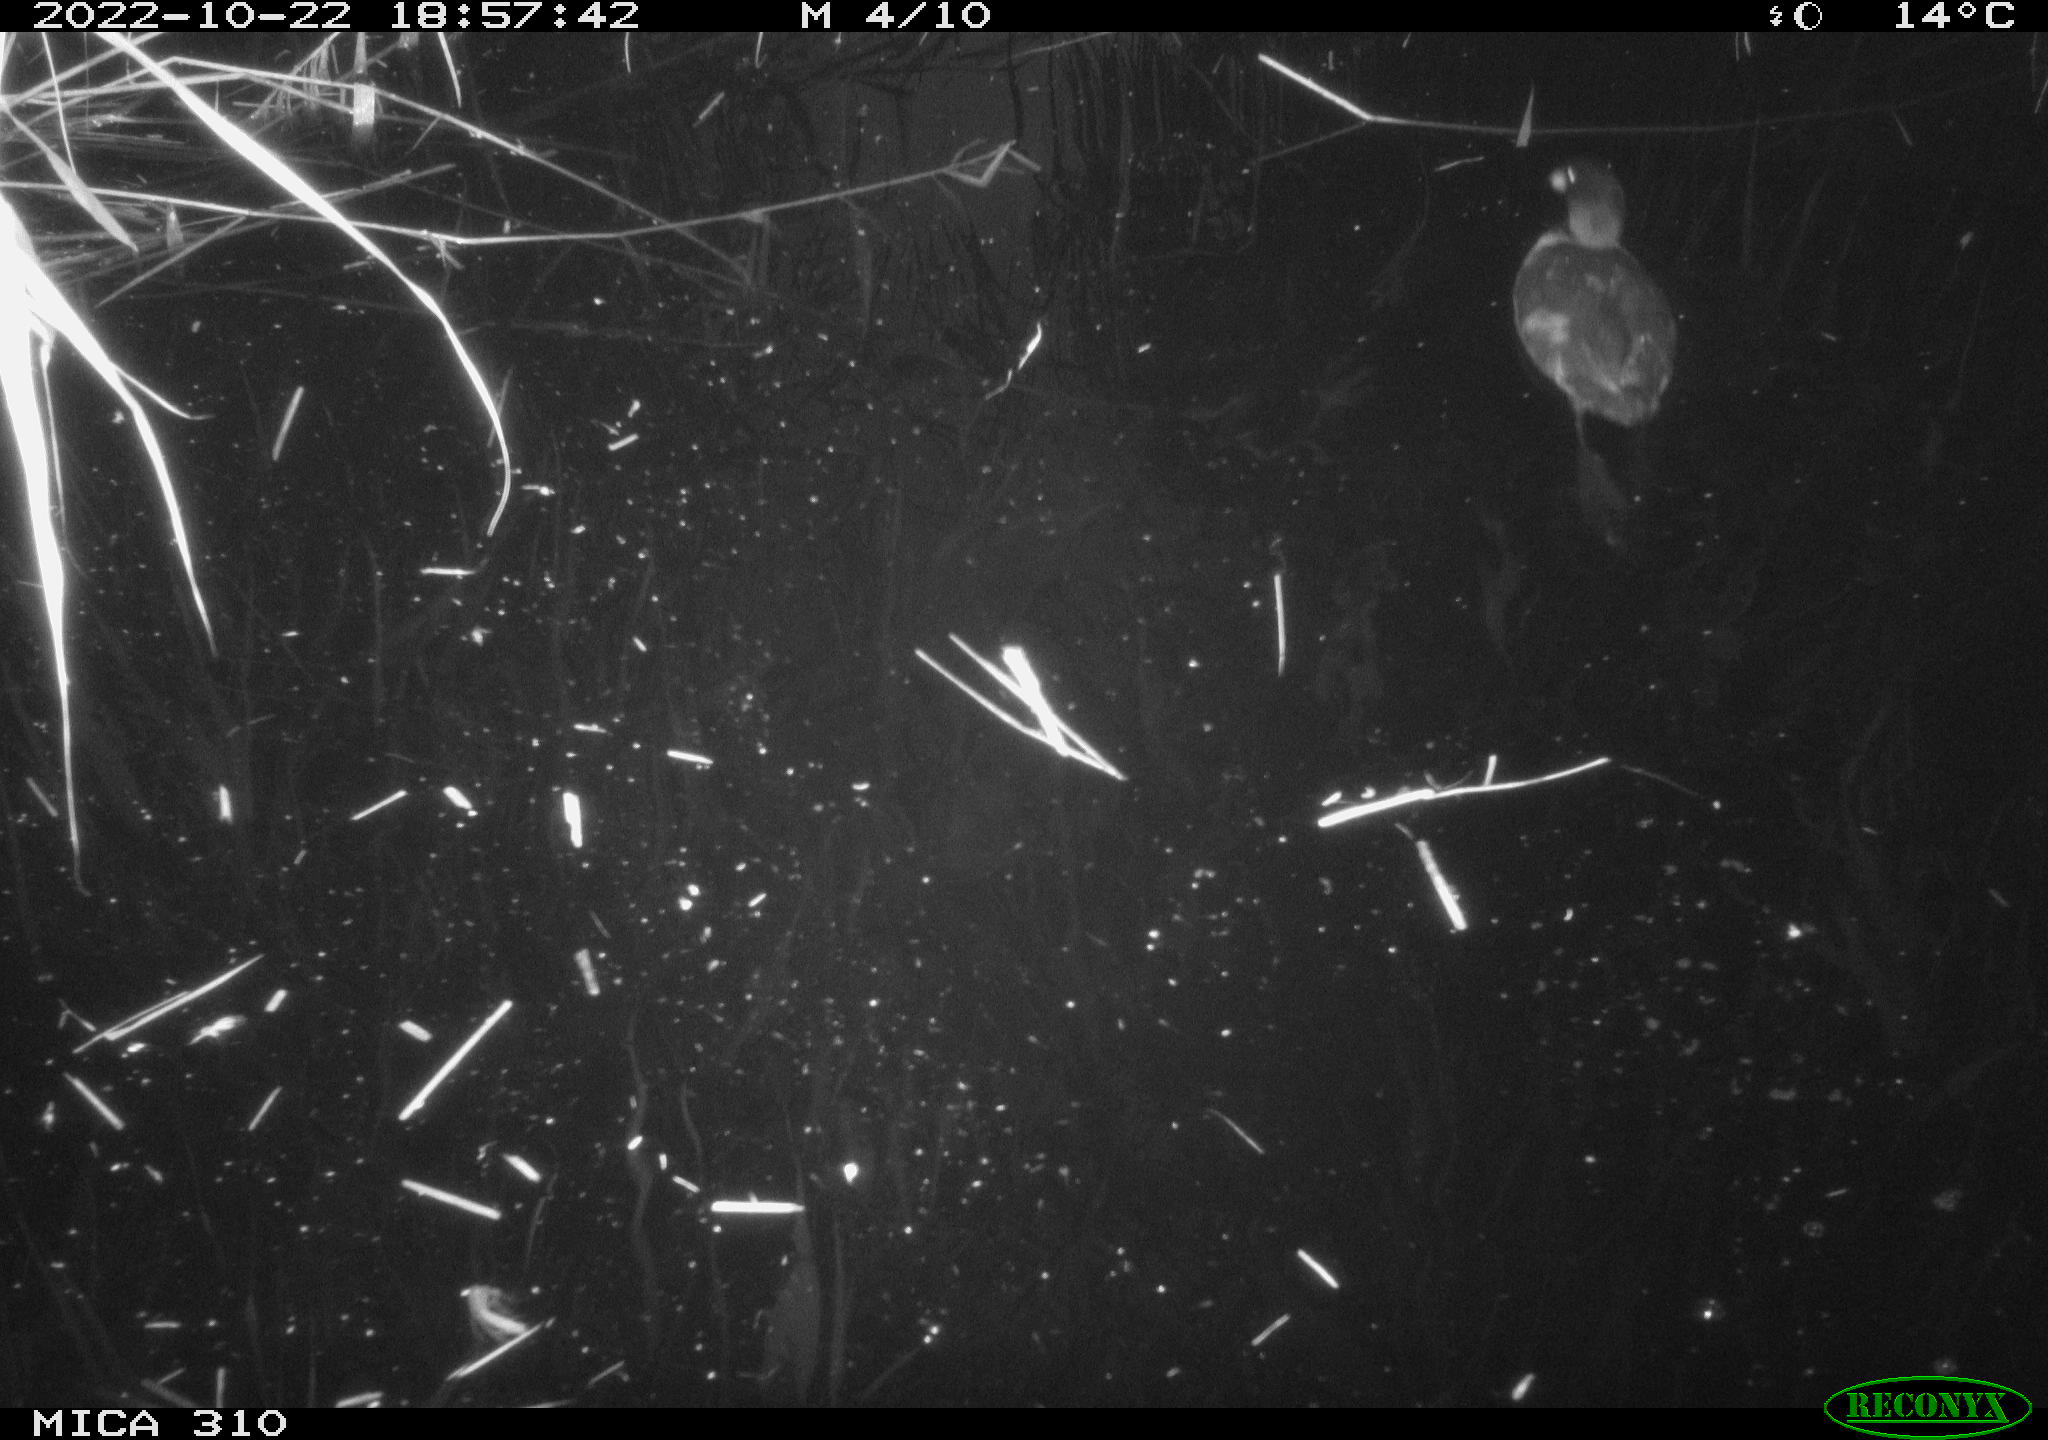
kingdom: Animalia
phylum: Chordata
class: Aves
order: Gruiformes
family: Rallidae
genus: Fulica
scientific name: Fulica atra
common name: Eurasian coot
